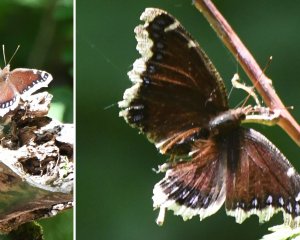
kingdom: Animalia
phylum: Arthropoda
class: Insecta
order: Lepidoptera
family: Nymphalidae
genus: Nymphalis
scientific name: Nymphalis antiopa
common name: Mourning Cloak
